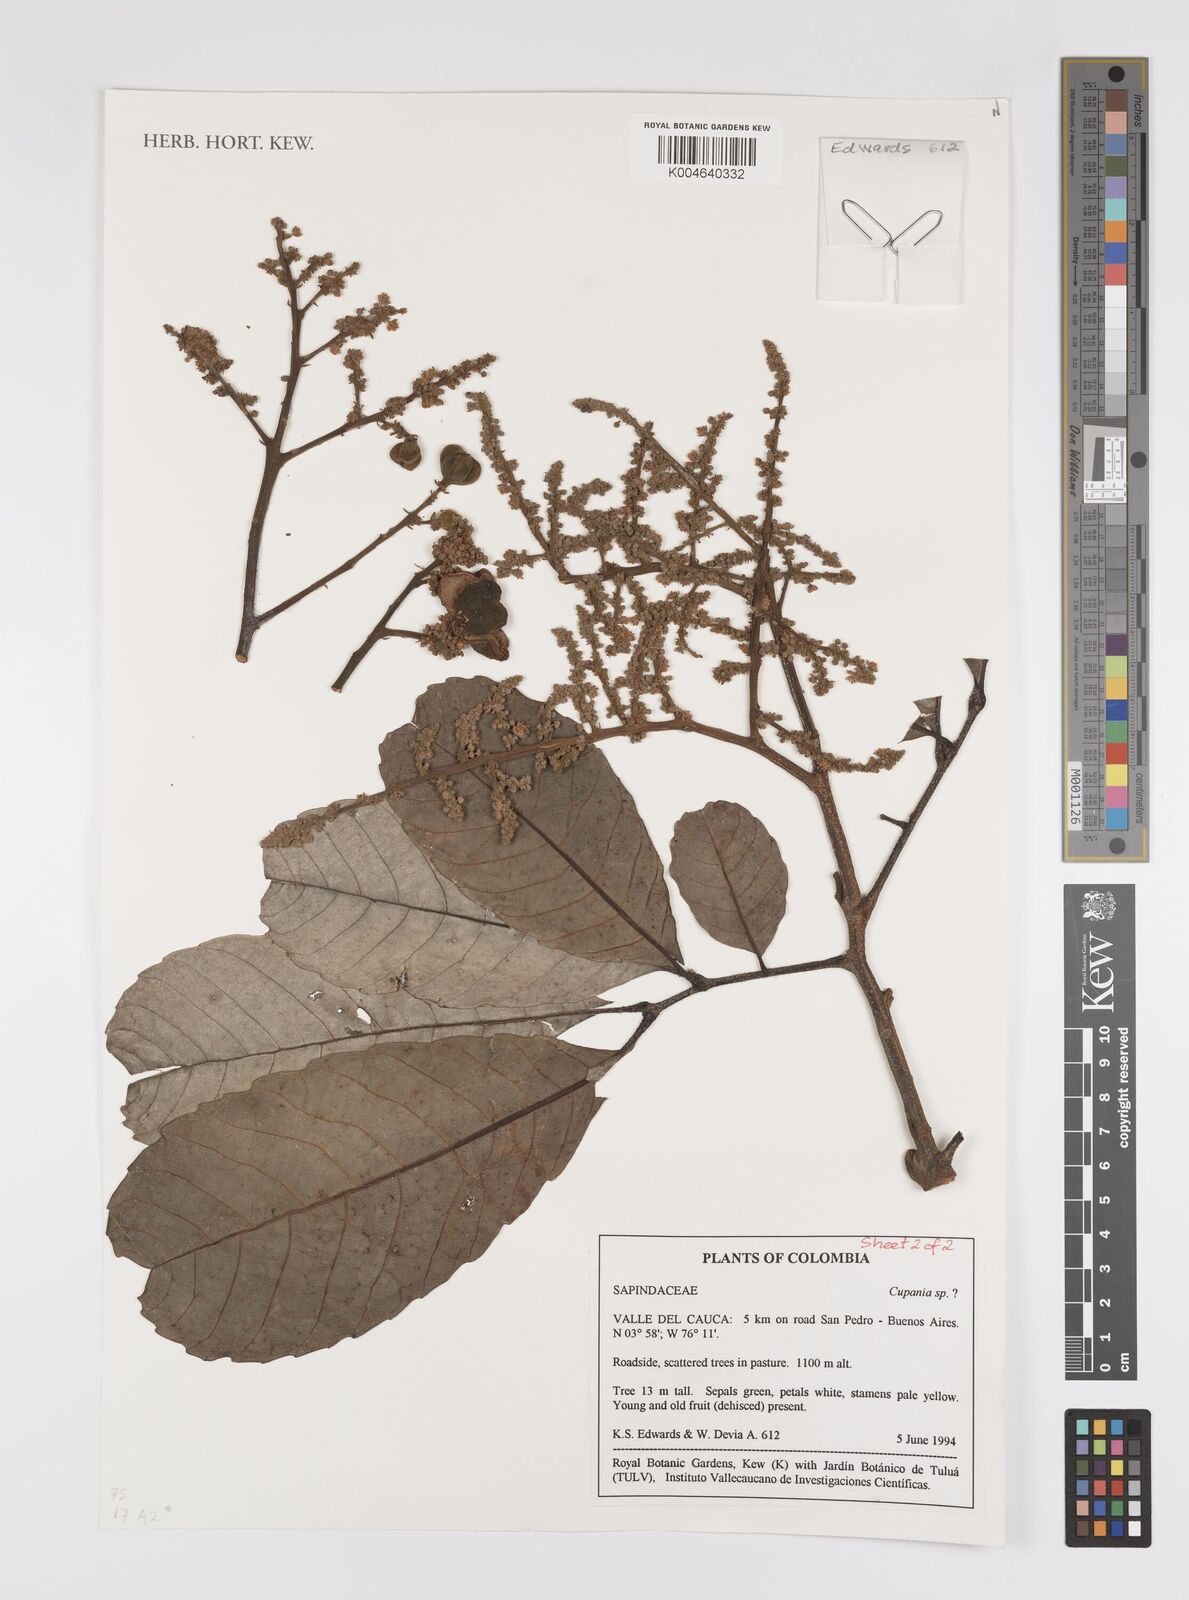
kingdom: Plantae
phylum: Tracheophyta
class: Magnoliopsida
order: Sapindales
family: Sapindaceae
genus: Cupania
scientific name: Cupania
